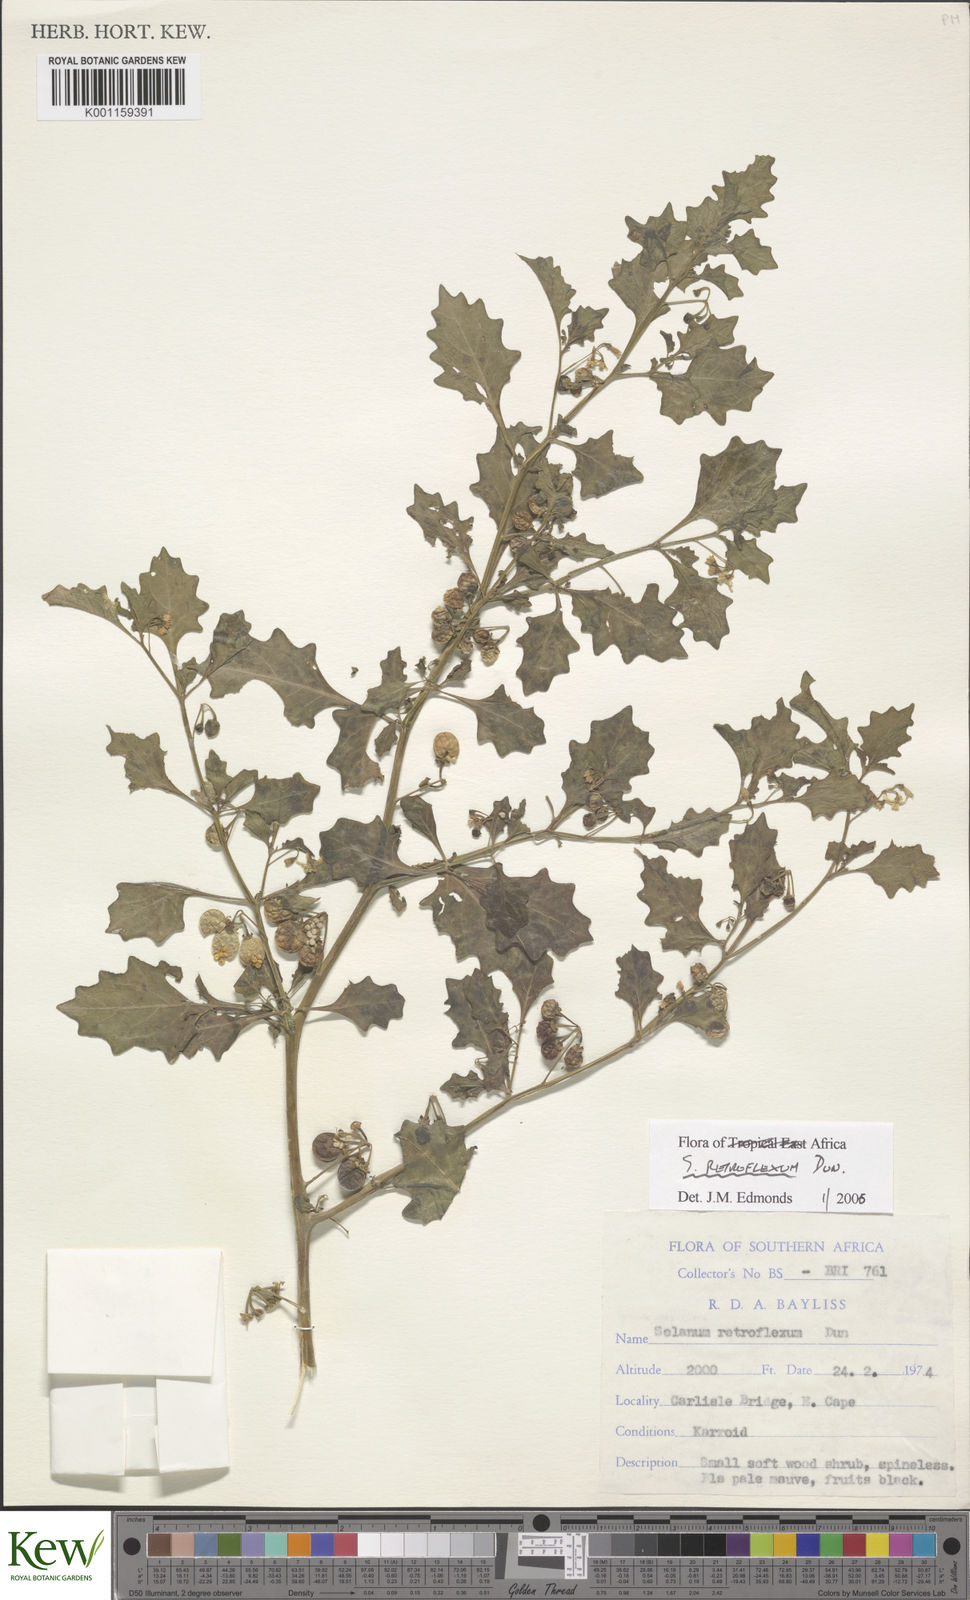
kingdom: Plantae
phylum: Tracheophyta
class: Magnoliopsida
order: Solanales
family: Solanaceae
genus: Solanum
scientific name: Solanum retroflexum
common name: Wonderberry
